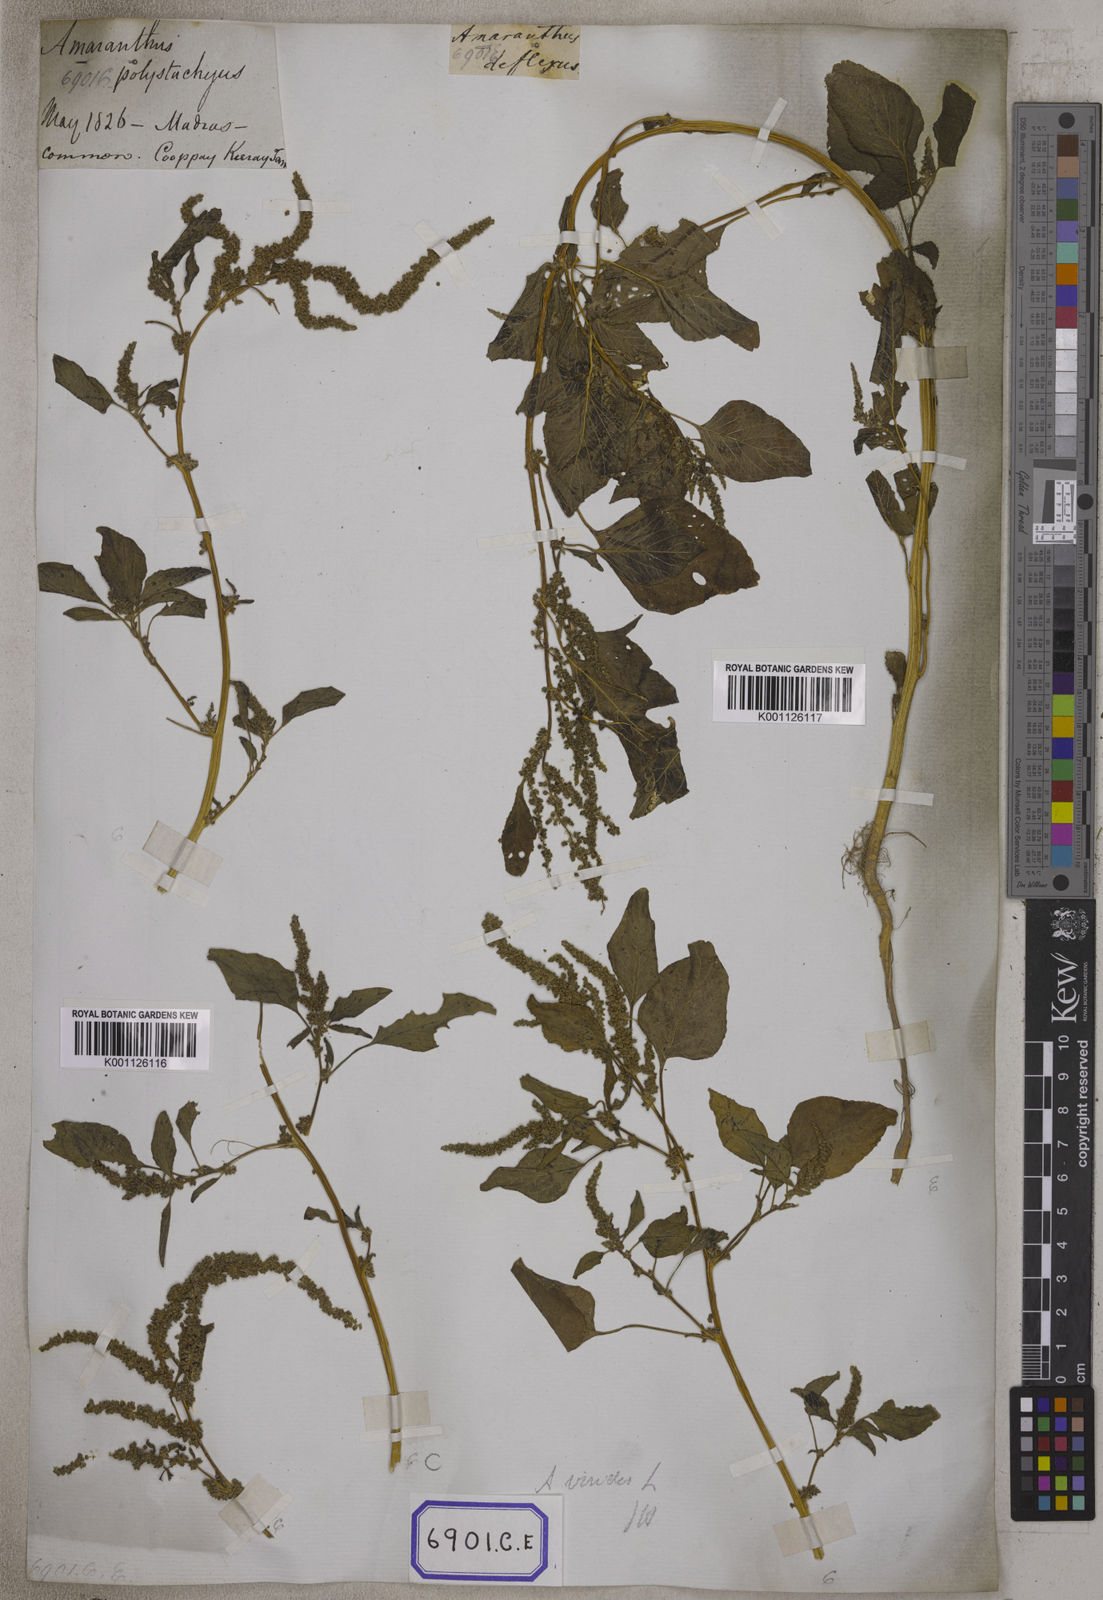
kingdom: Plantae
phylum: Tracheophyta
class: Magnoliopsida
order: Caryophyllales
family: Amaranthaceae
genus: Amaranthus
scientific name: Amaranthus
